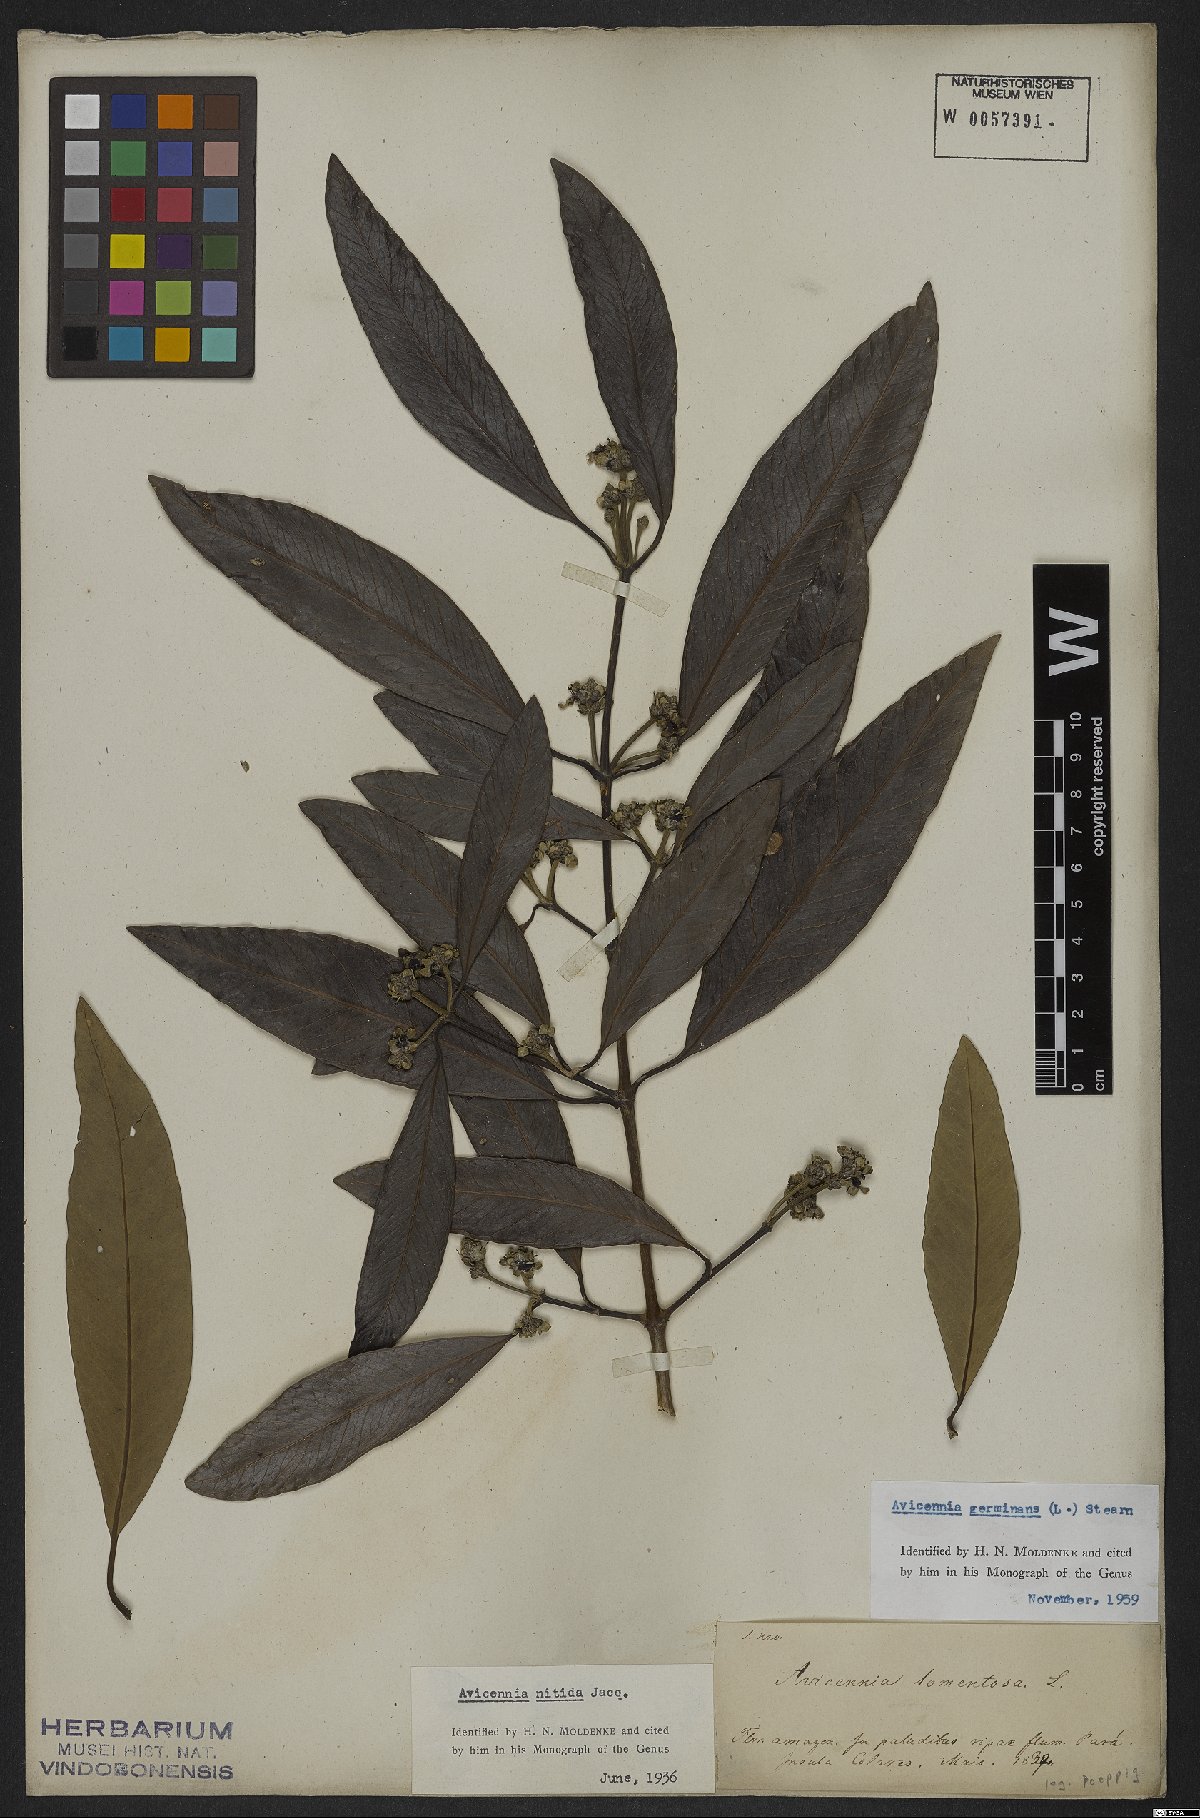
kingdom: Plantae
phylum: Tracheophyta
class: Magnoliopsida
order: Lamiales
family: Acanthaceae
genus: Avicennia
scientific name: Avicennia germinans
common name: Black mangrove
